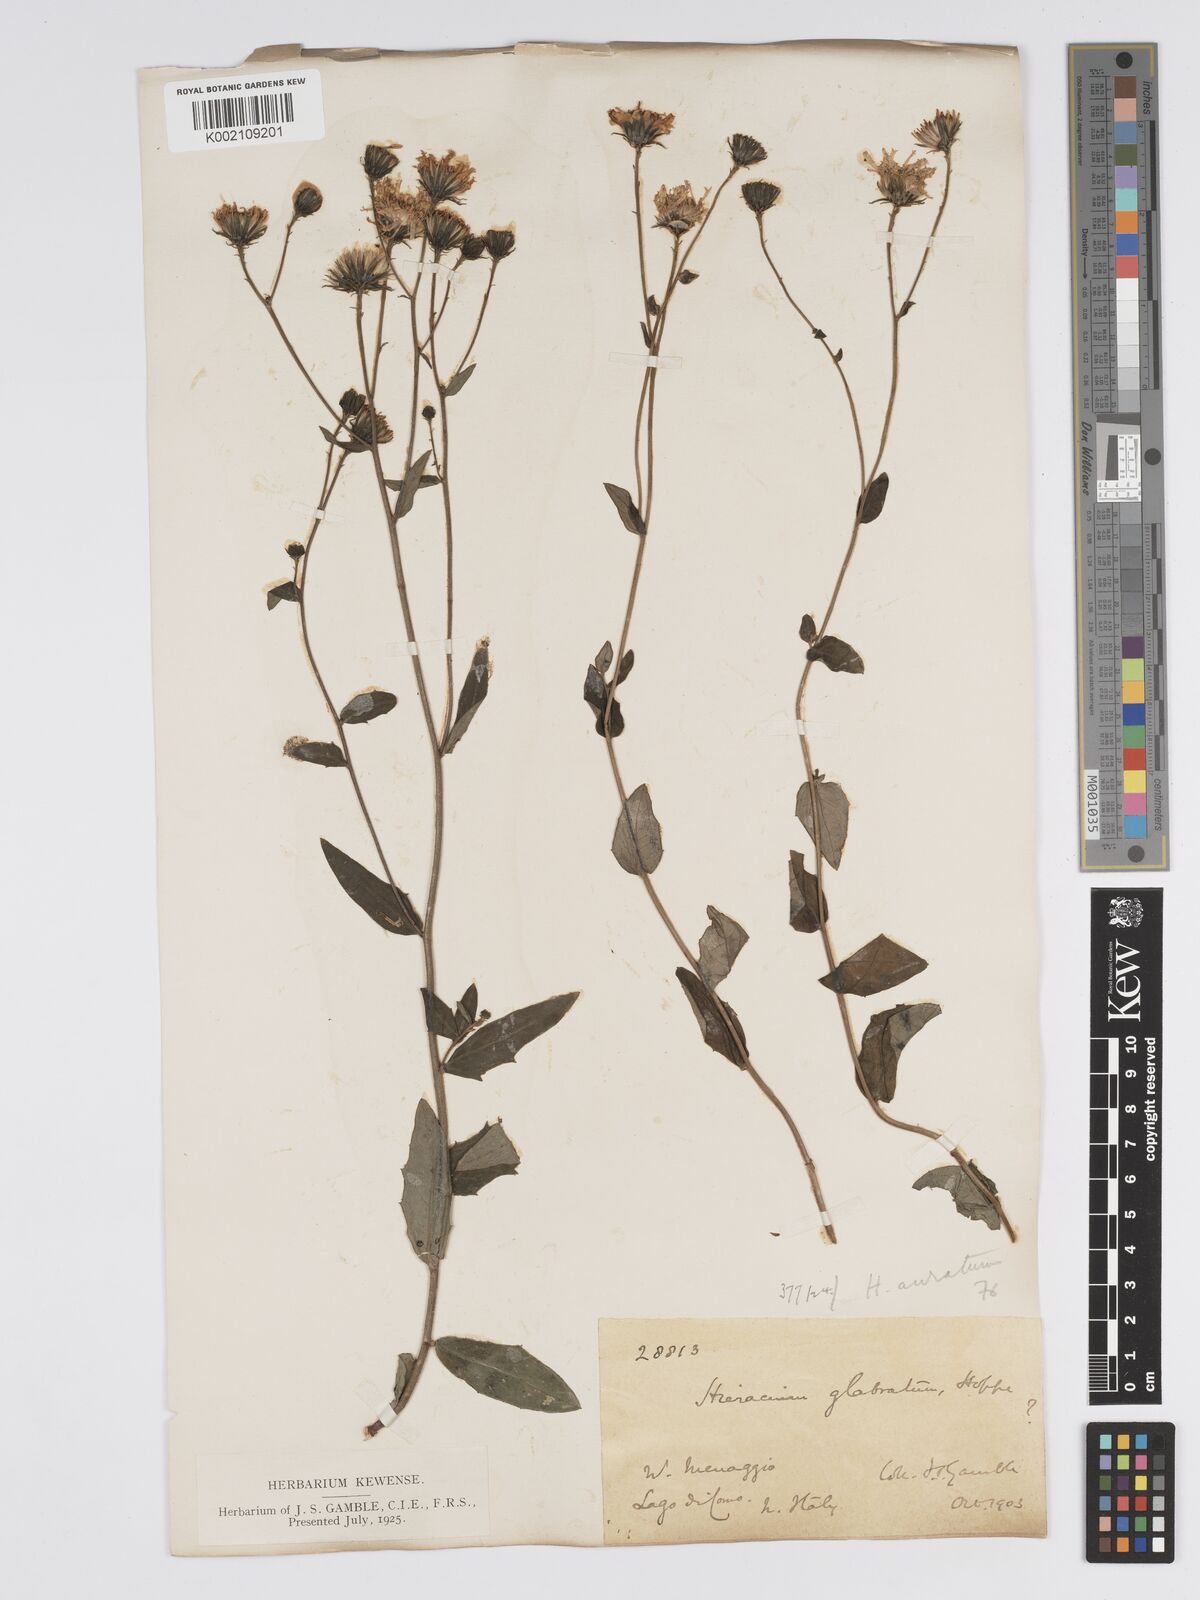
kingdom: Plantae
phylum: Tracheophyta
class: Magnoliopsida
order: Asterales
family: Asteraceae
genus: Hieracium
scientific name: Hieracium sabaudum
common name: New england hawkweed
